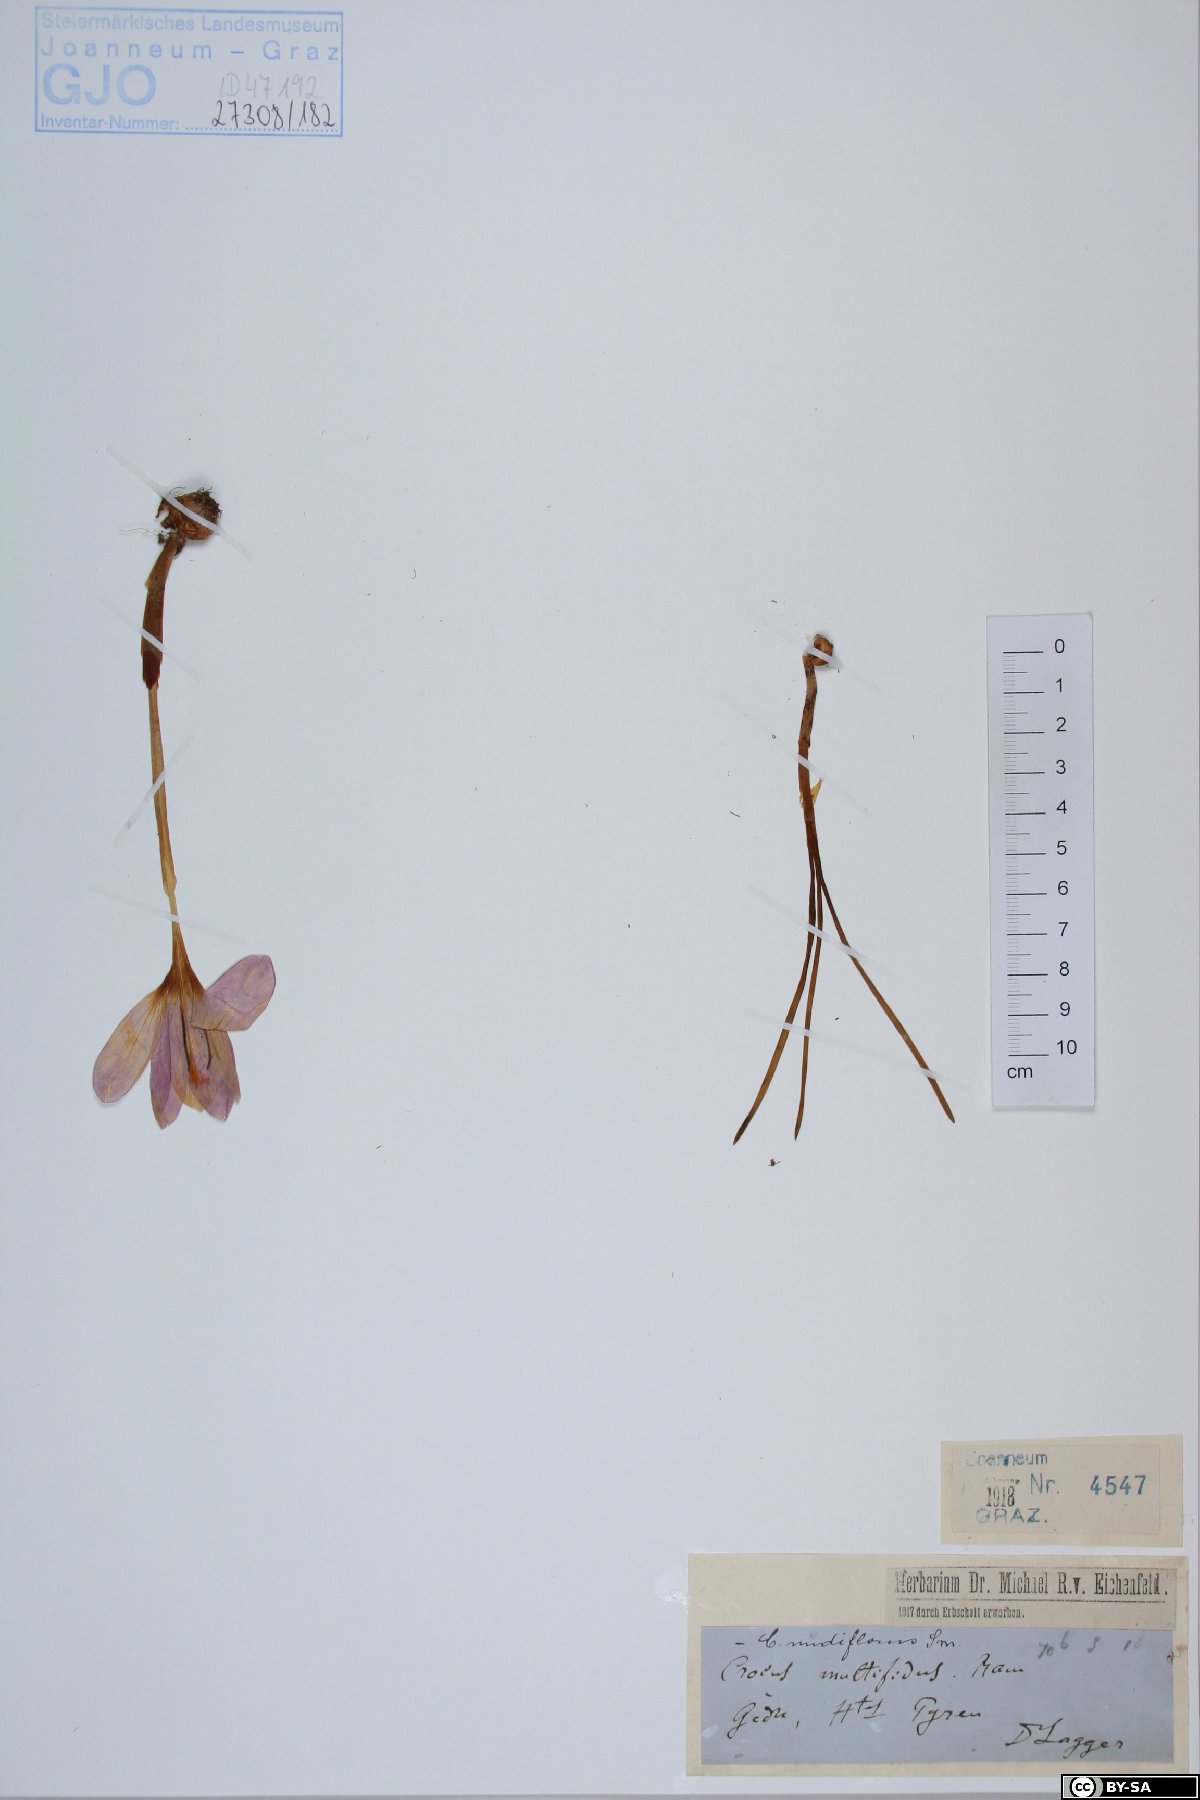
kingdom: Plantae
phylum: Tracheophyta
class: Liliopsida
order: Asparagales
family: Iridaceae
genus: Crocus
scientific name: Crocus nudiflorus
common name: Autumn crocus
